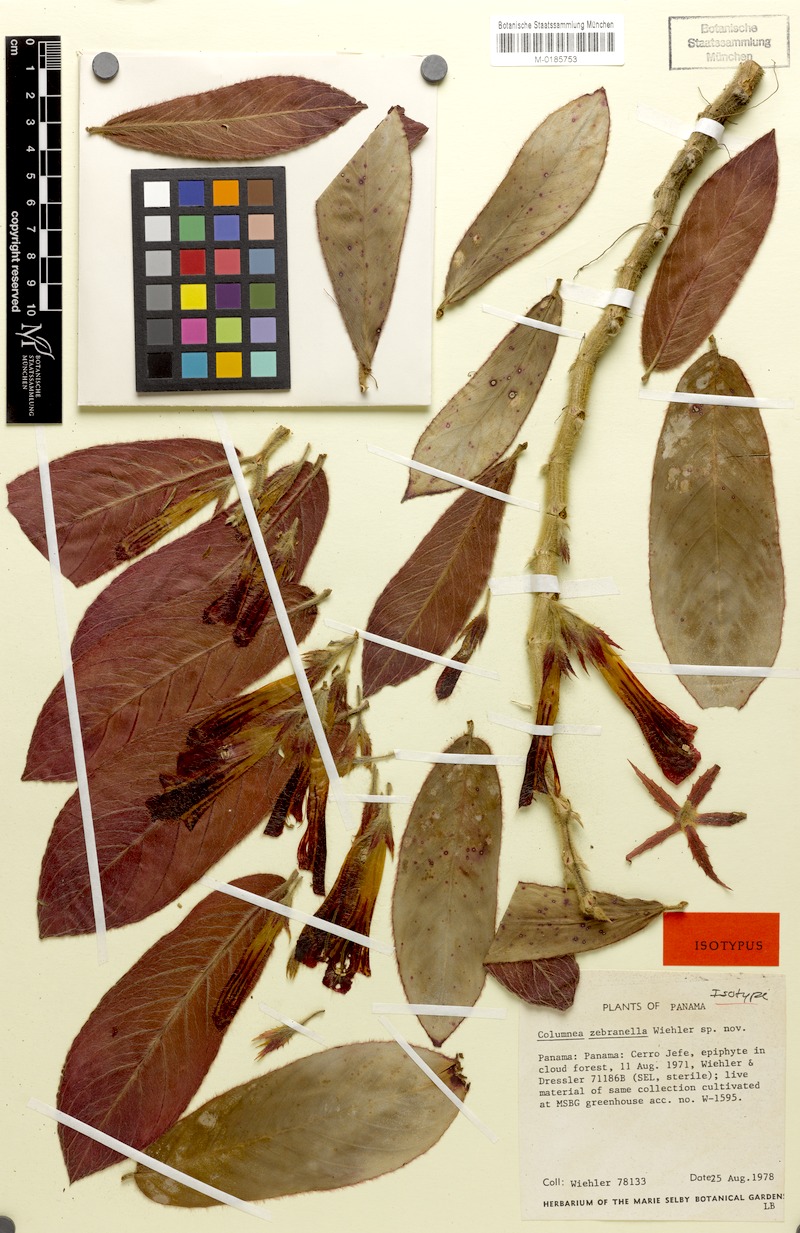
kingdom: Plantae
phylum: Tracheophyta
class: Magnoliopsida
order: Lamiales
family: Gesneriaceae
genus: Columnea
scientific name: Columnea zebranella
